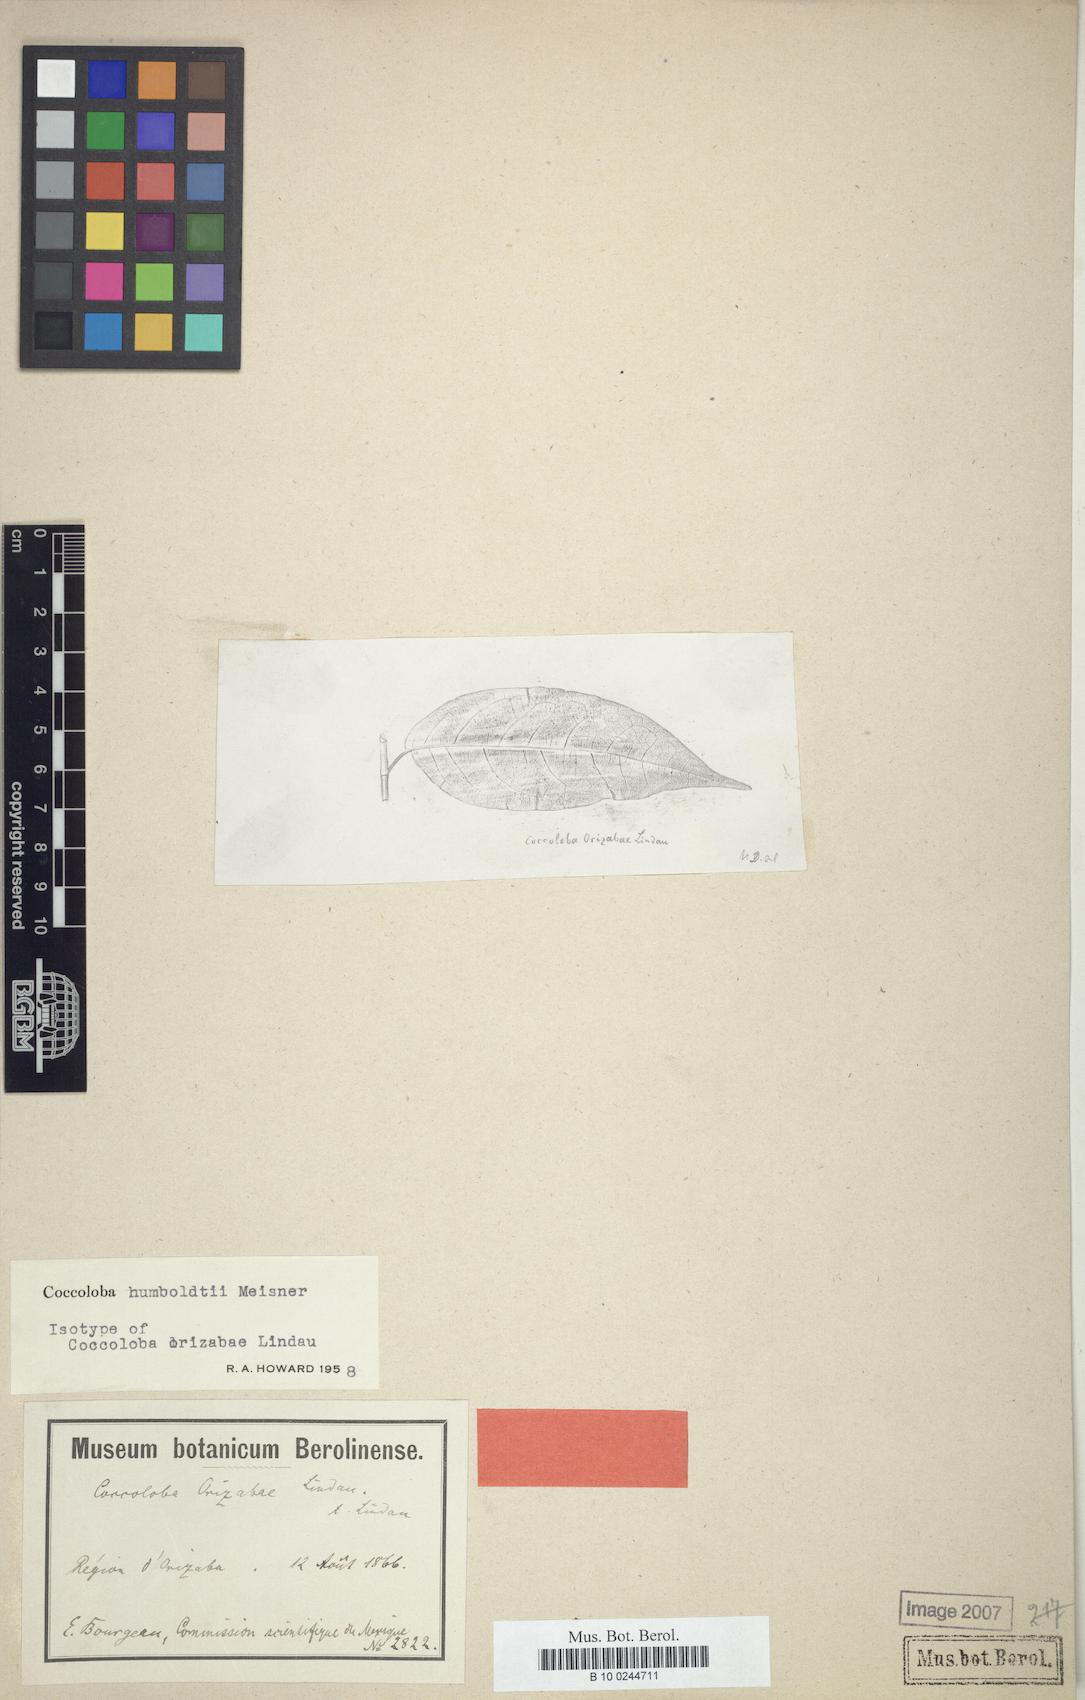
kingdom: Plantae
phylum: Tracheophyta
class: Magnoliopsida
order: Caryophyllales
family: Polygonaceae
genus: Coccoloba
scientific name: Coccoloba humboldtii
